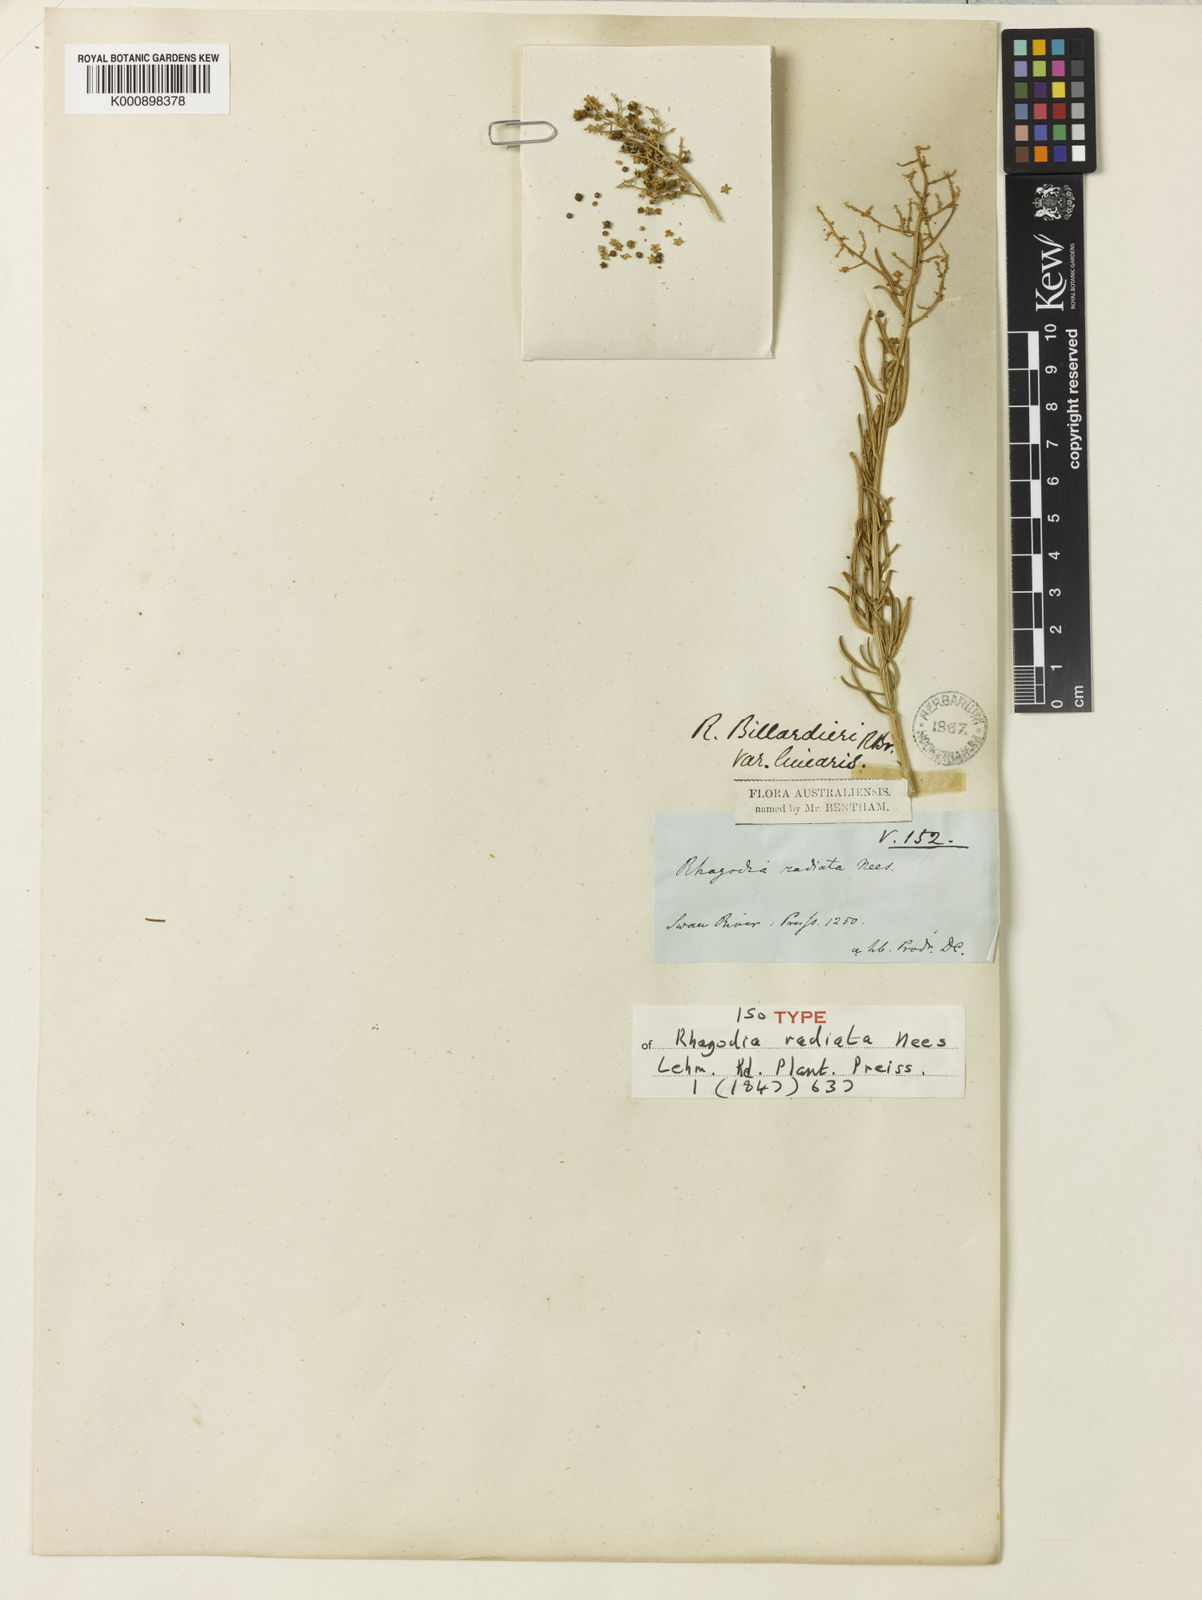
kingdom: Plantae
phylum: Tracheophyta
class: Magnoliopsida
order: Caryophyllales
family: Amaranthaceae
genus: Chenopodium
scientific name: Chenopodium baccatum
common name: Coastal-saltbush
